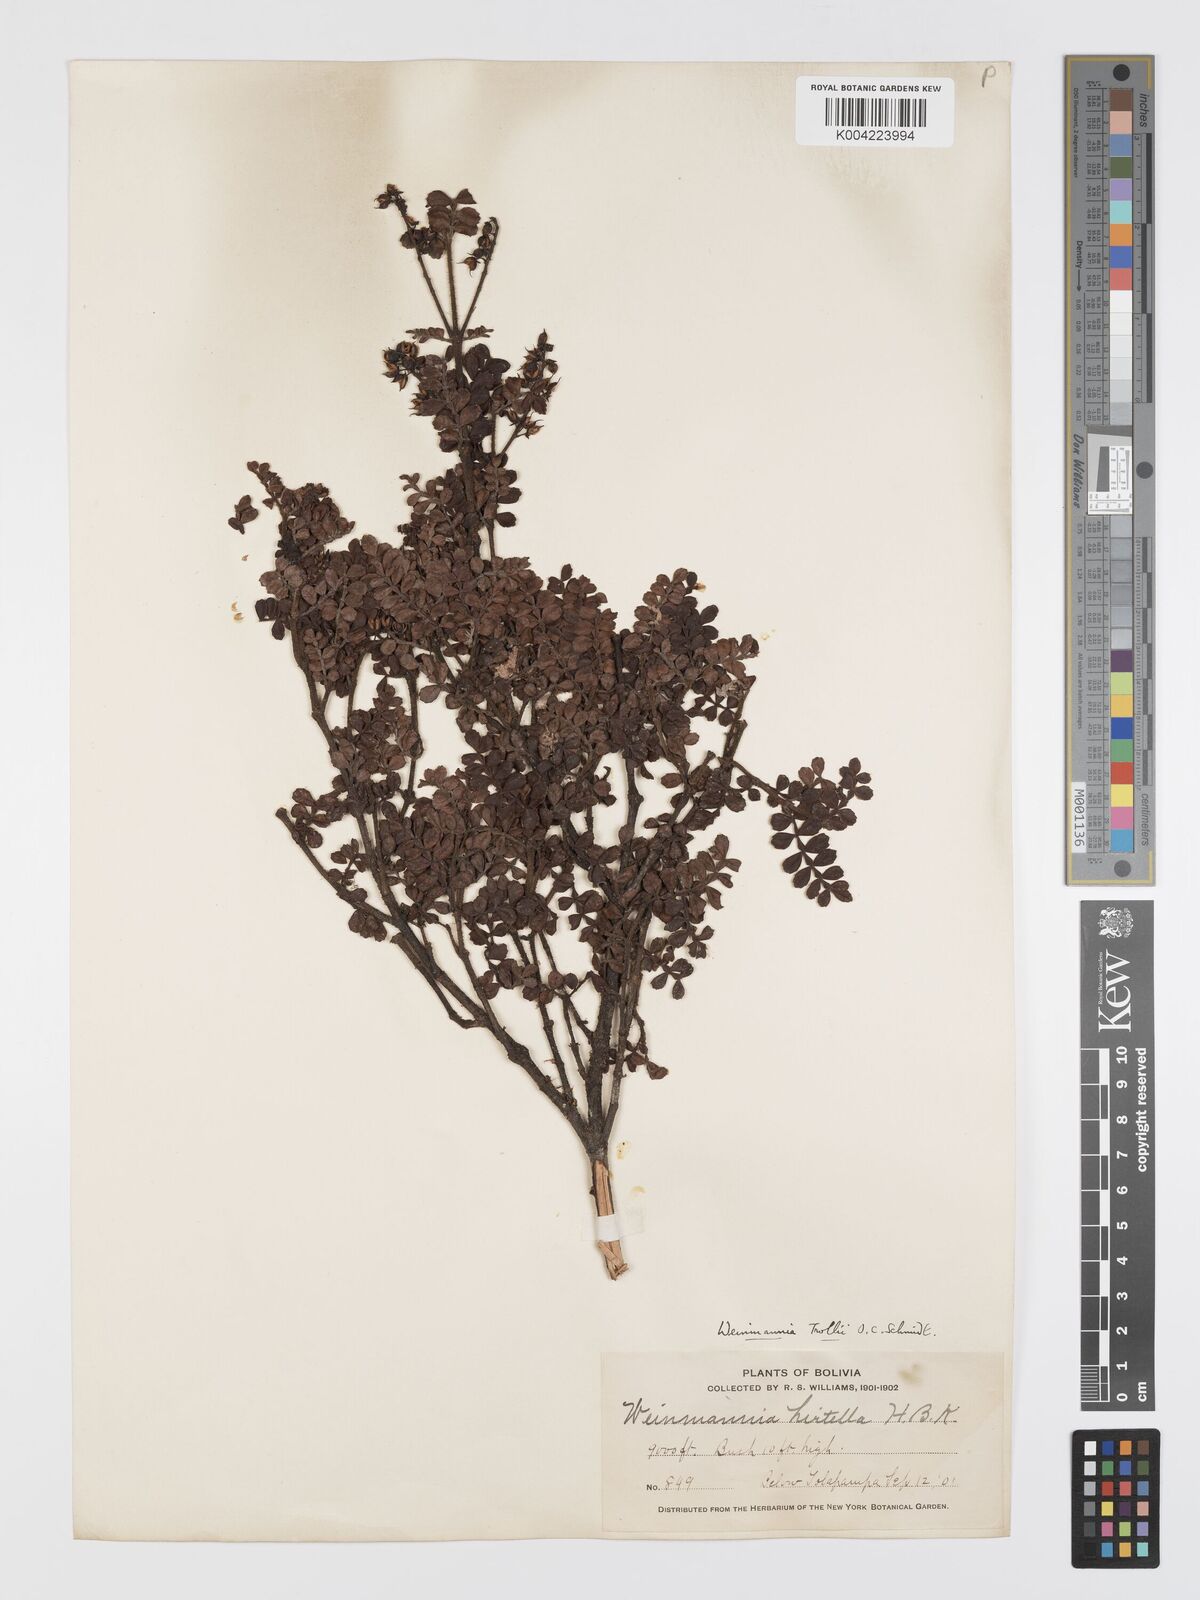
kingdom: Plantae
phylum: Tracheophyta
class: Magnoliopsida
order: Oxalidales
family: Cunoniaceae
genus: Weinmannia
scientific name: Weinmannia fagaroides
